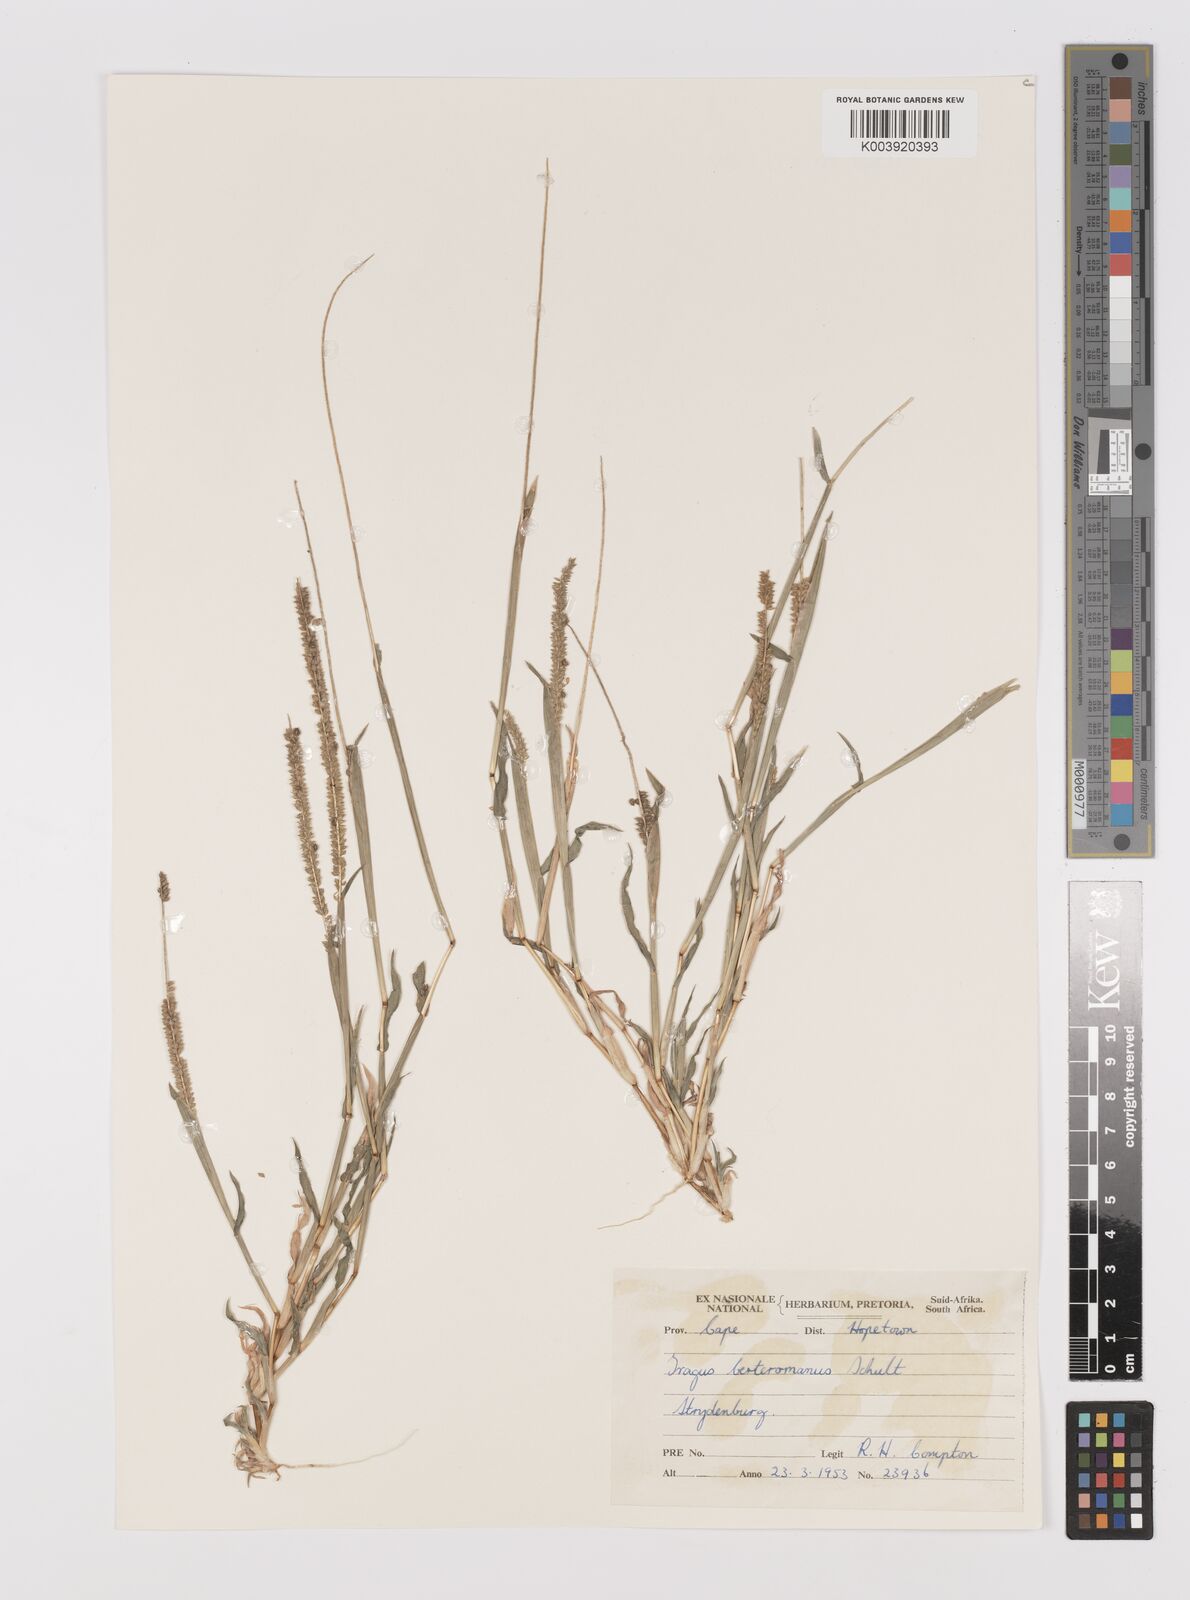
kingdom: Plantae
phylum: Tracheophyta
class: Liliopsida
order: Poales
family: Poaceae
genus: Tragus
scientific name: Tragus berteronianus
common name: African bur-grass
